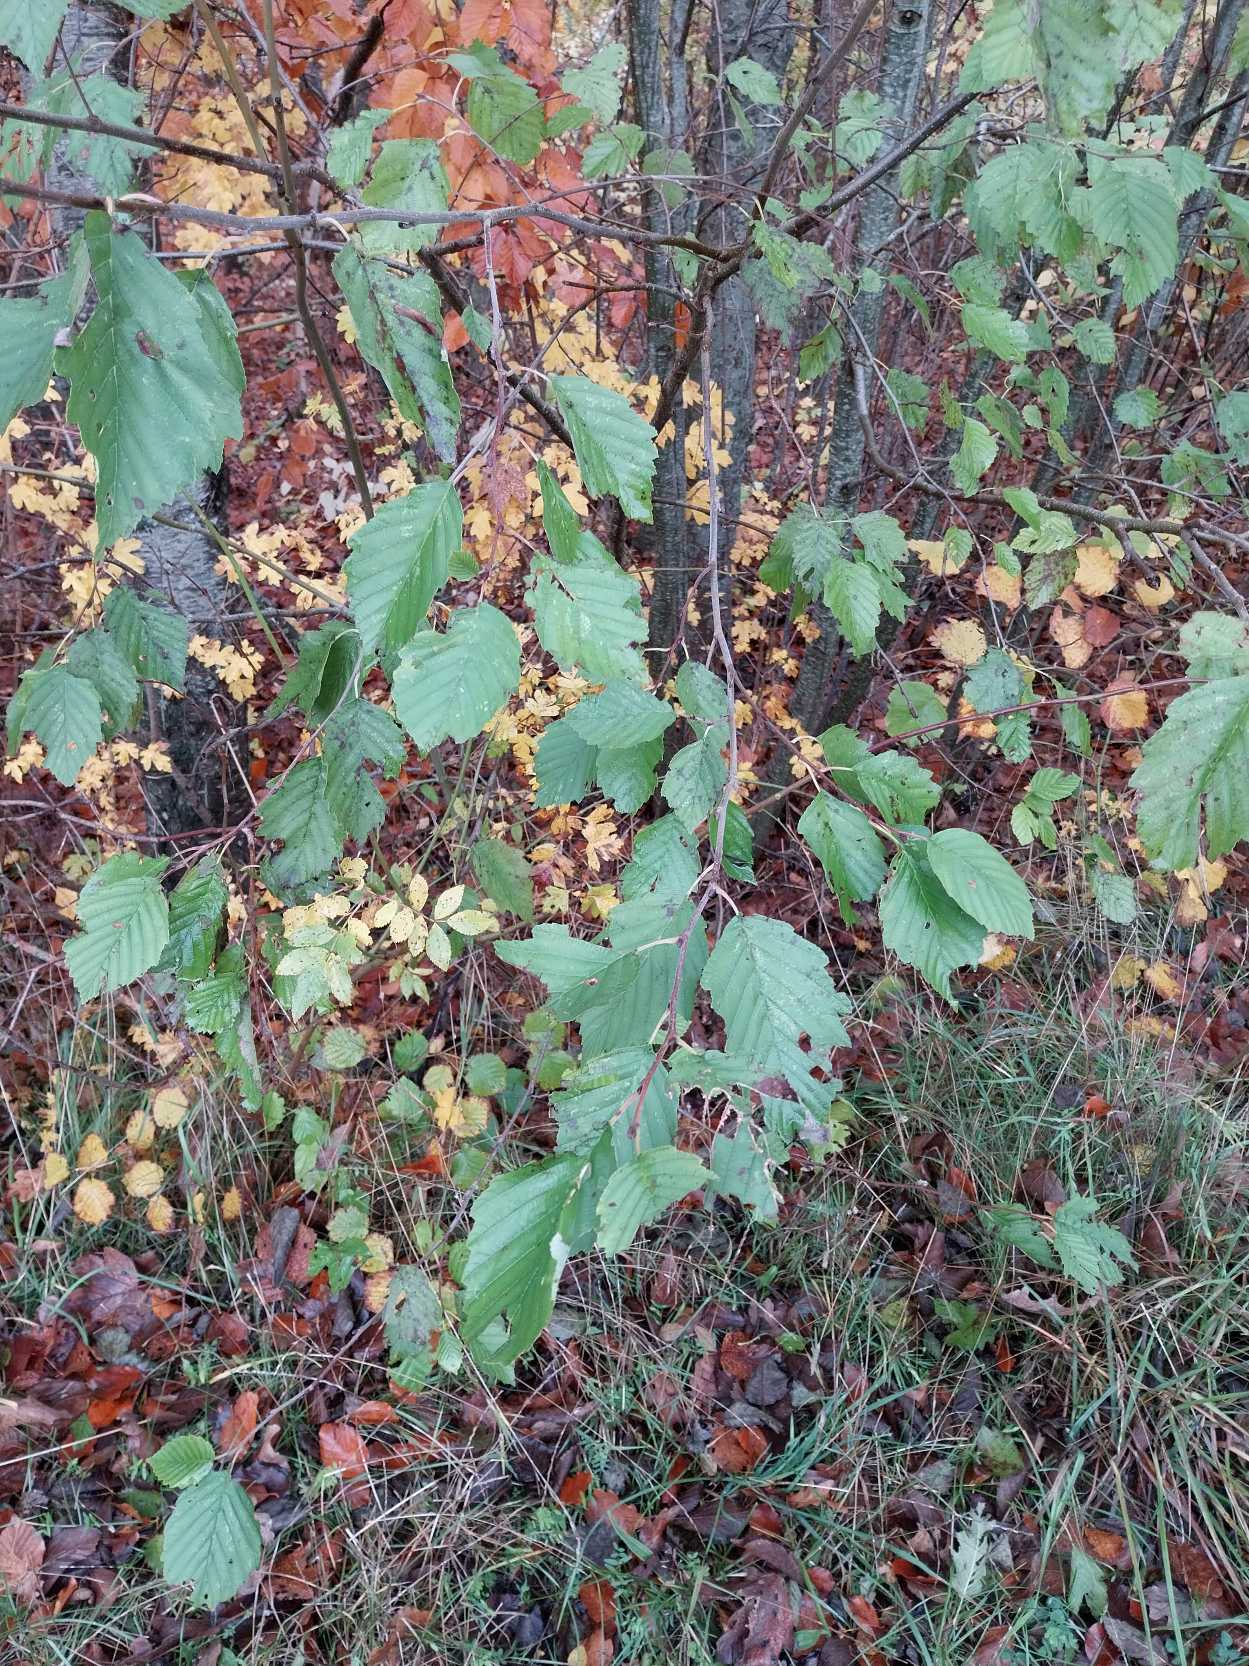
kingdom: Plantae
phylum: Tracheophyta
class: Magnoliopsida
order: Fagales
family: Betulaceae
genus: Alnus
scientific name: Alnus incana
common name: Grå-el/hvid-el
